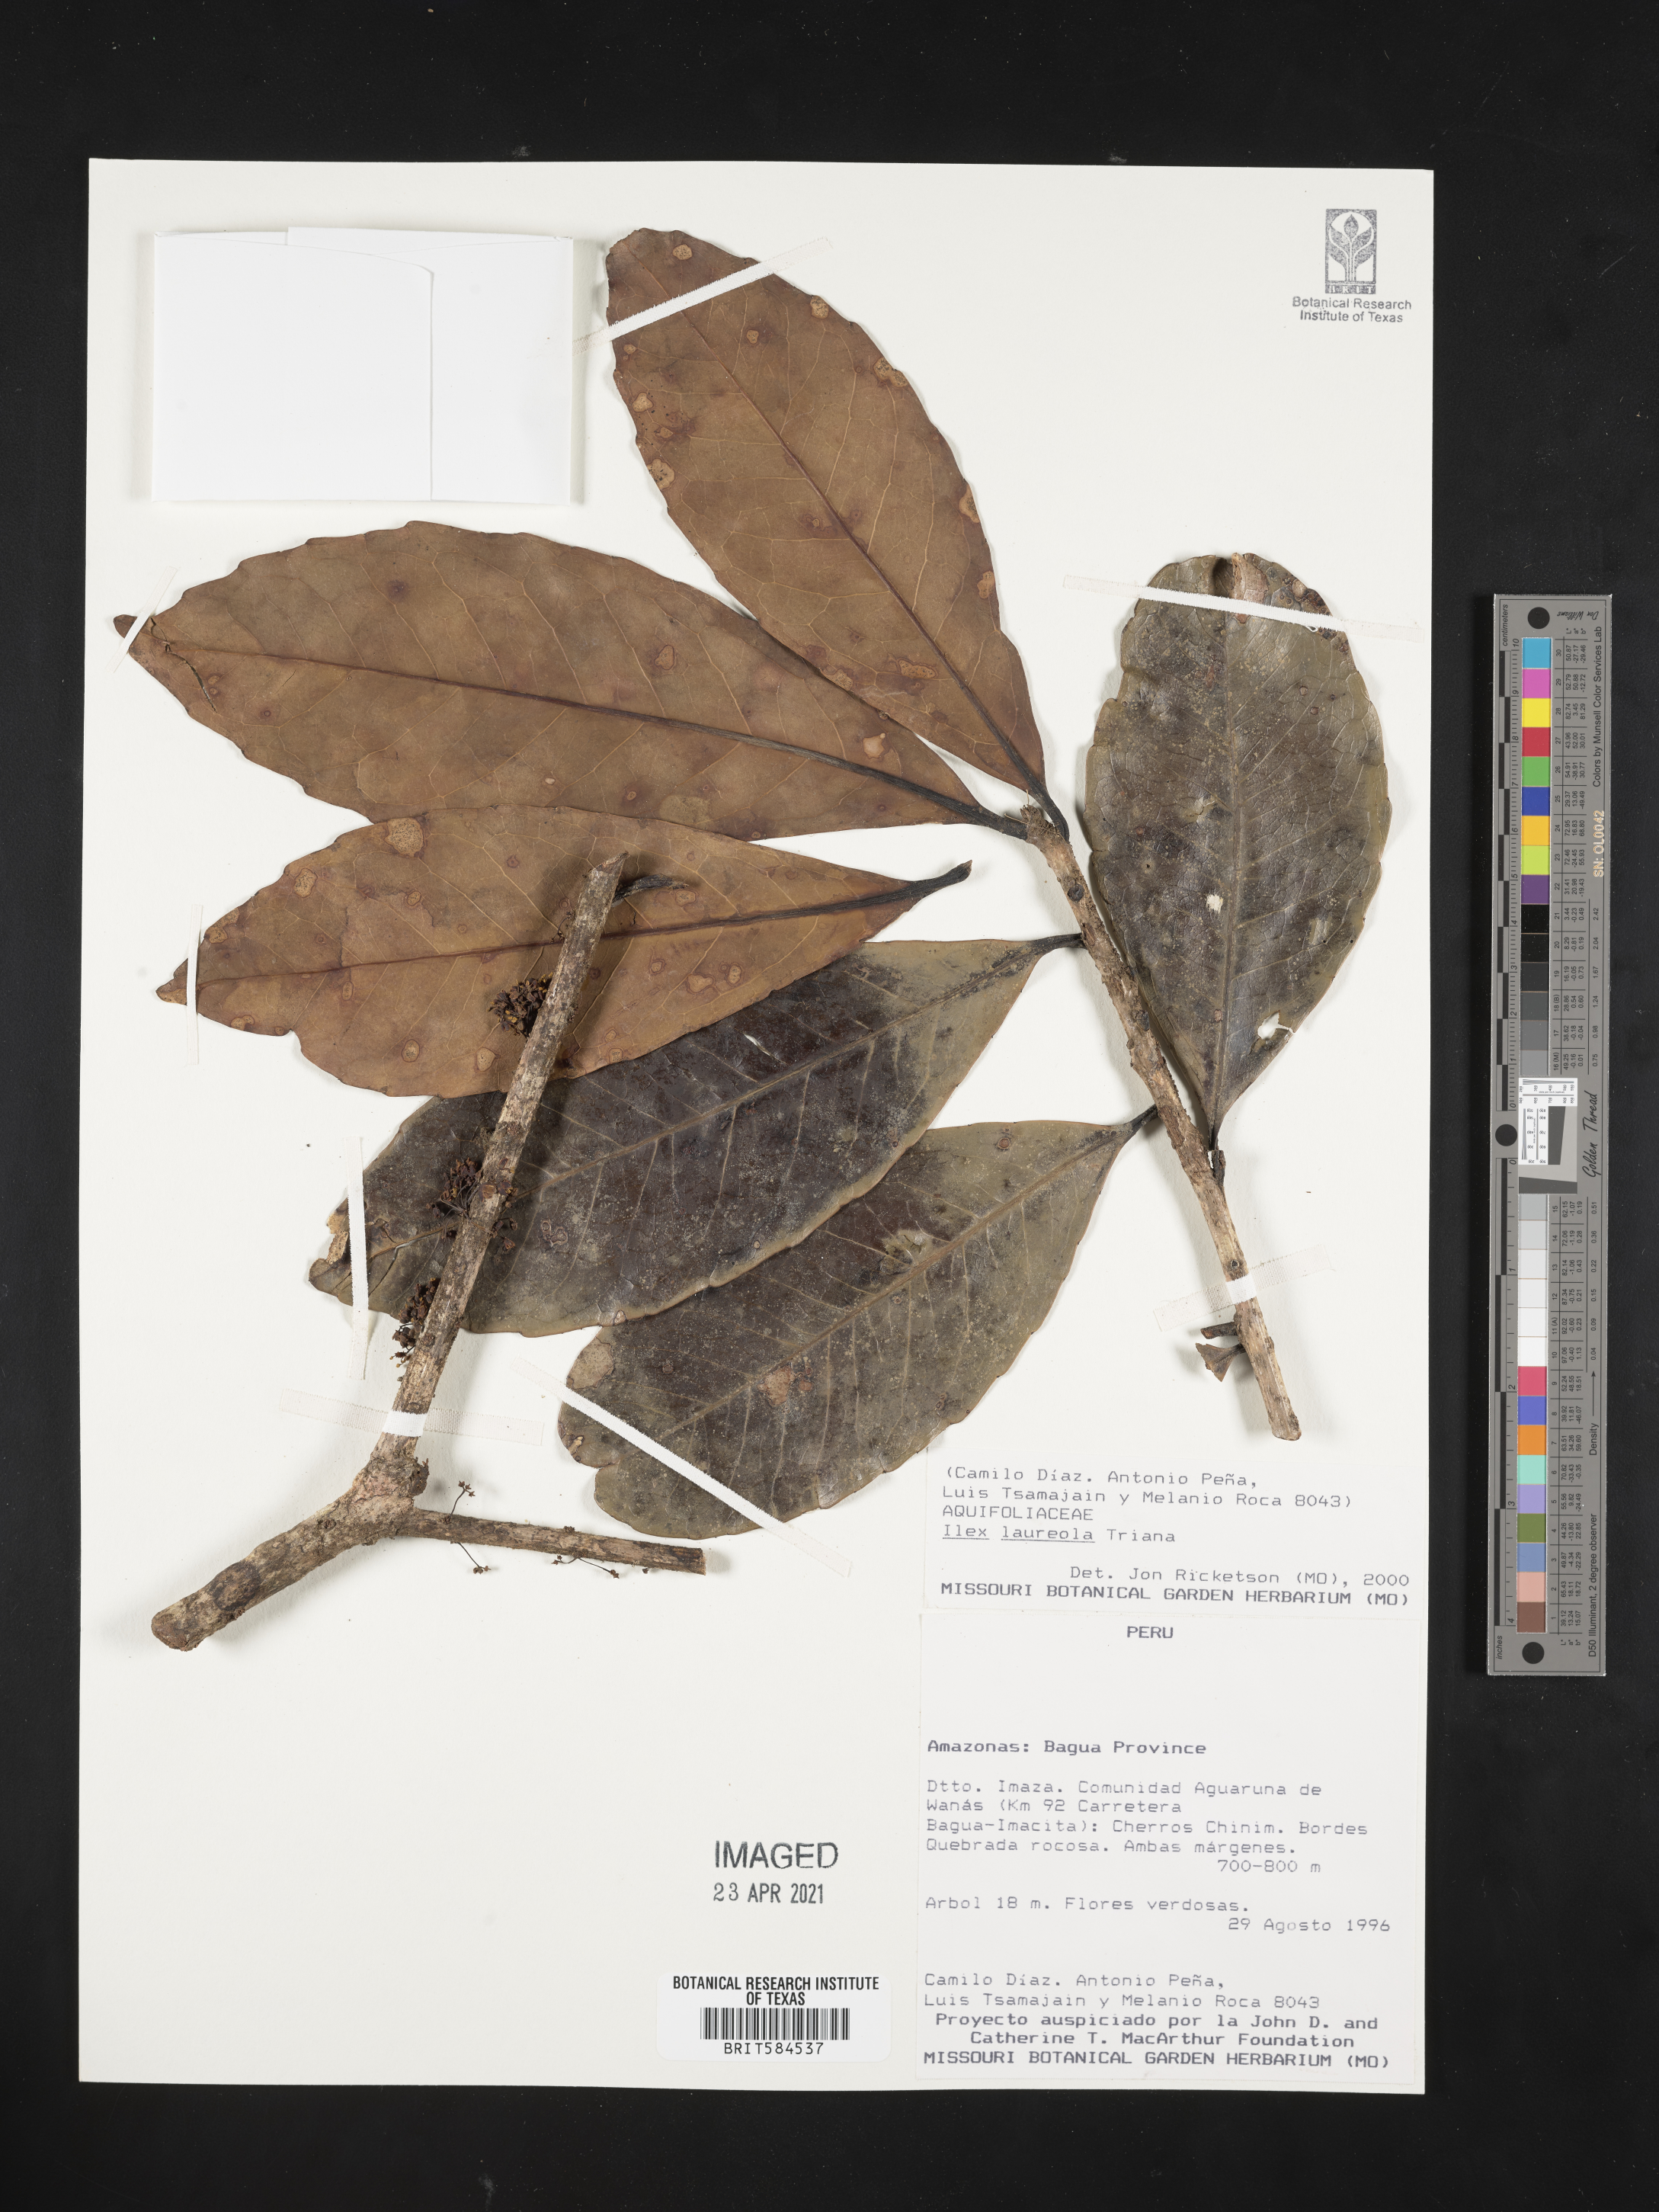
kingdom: Plantae
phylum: Tracheophyta
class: Magnoliopsida
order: Aquifoliales
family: Aquifoliaceae
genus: Ilex
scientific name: Ilex laureola
